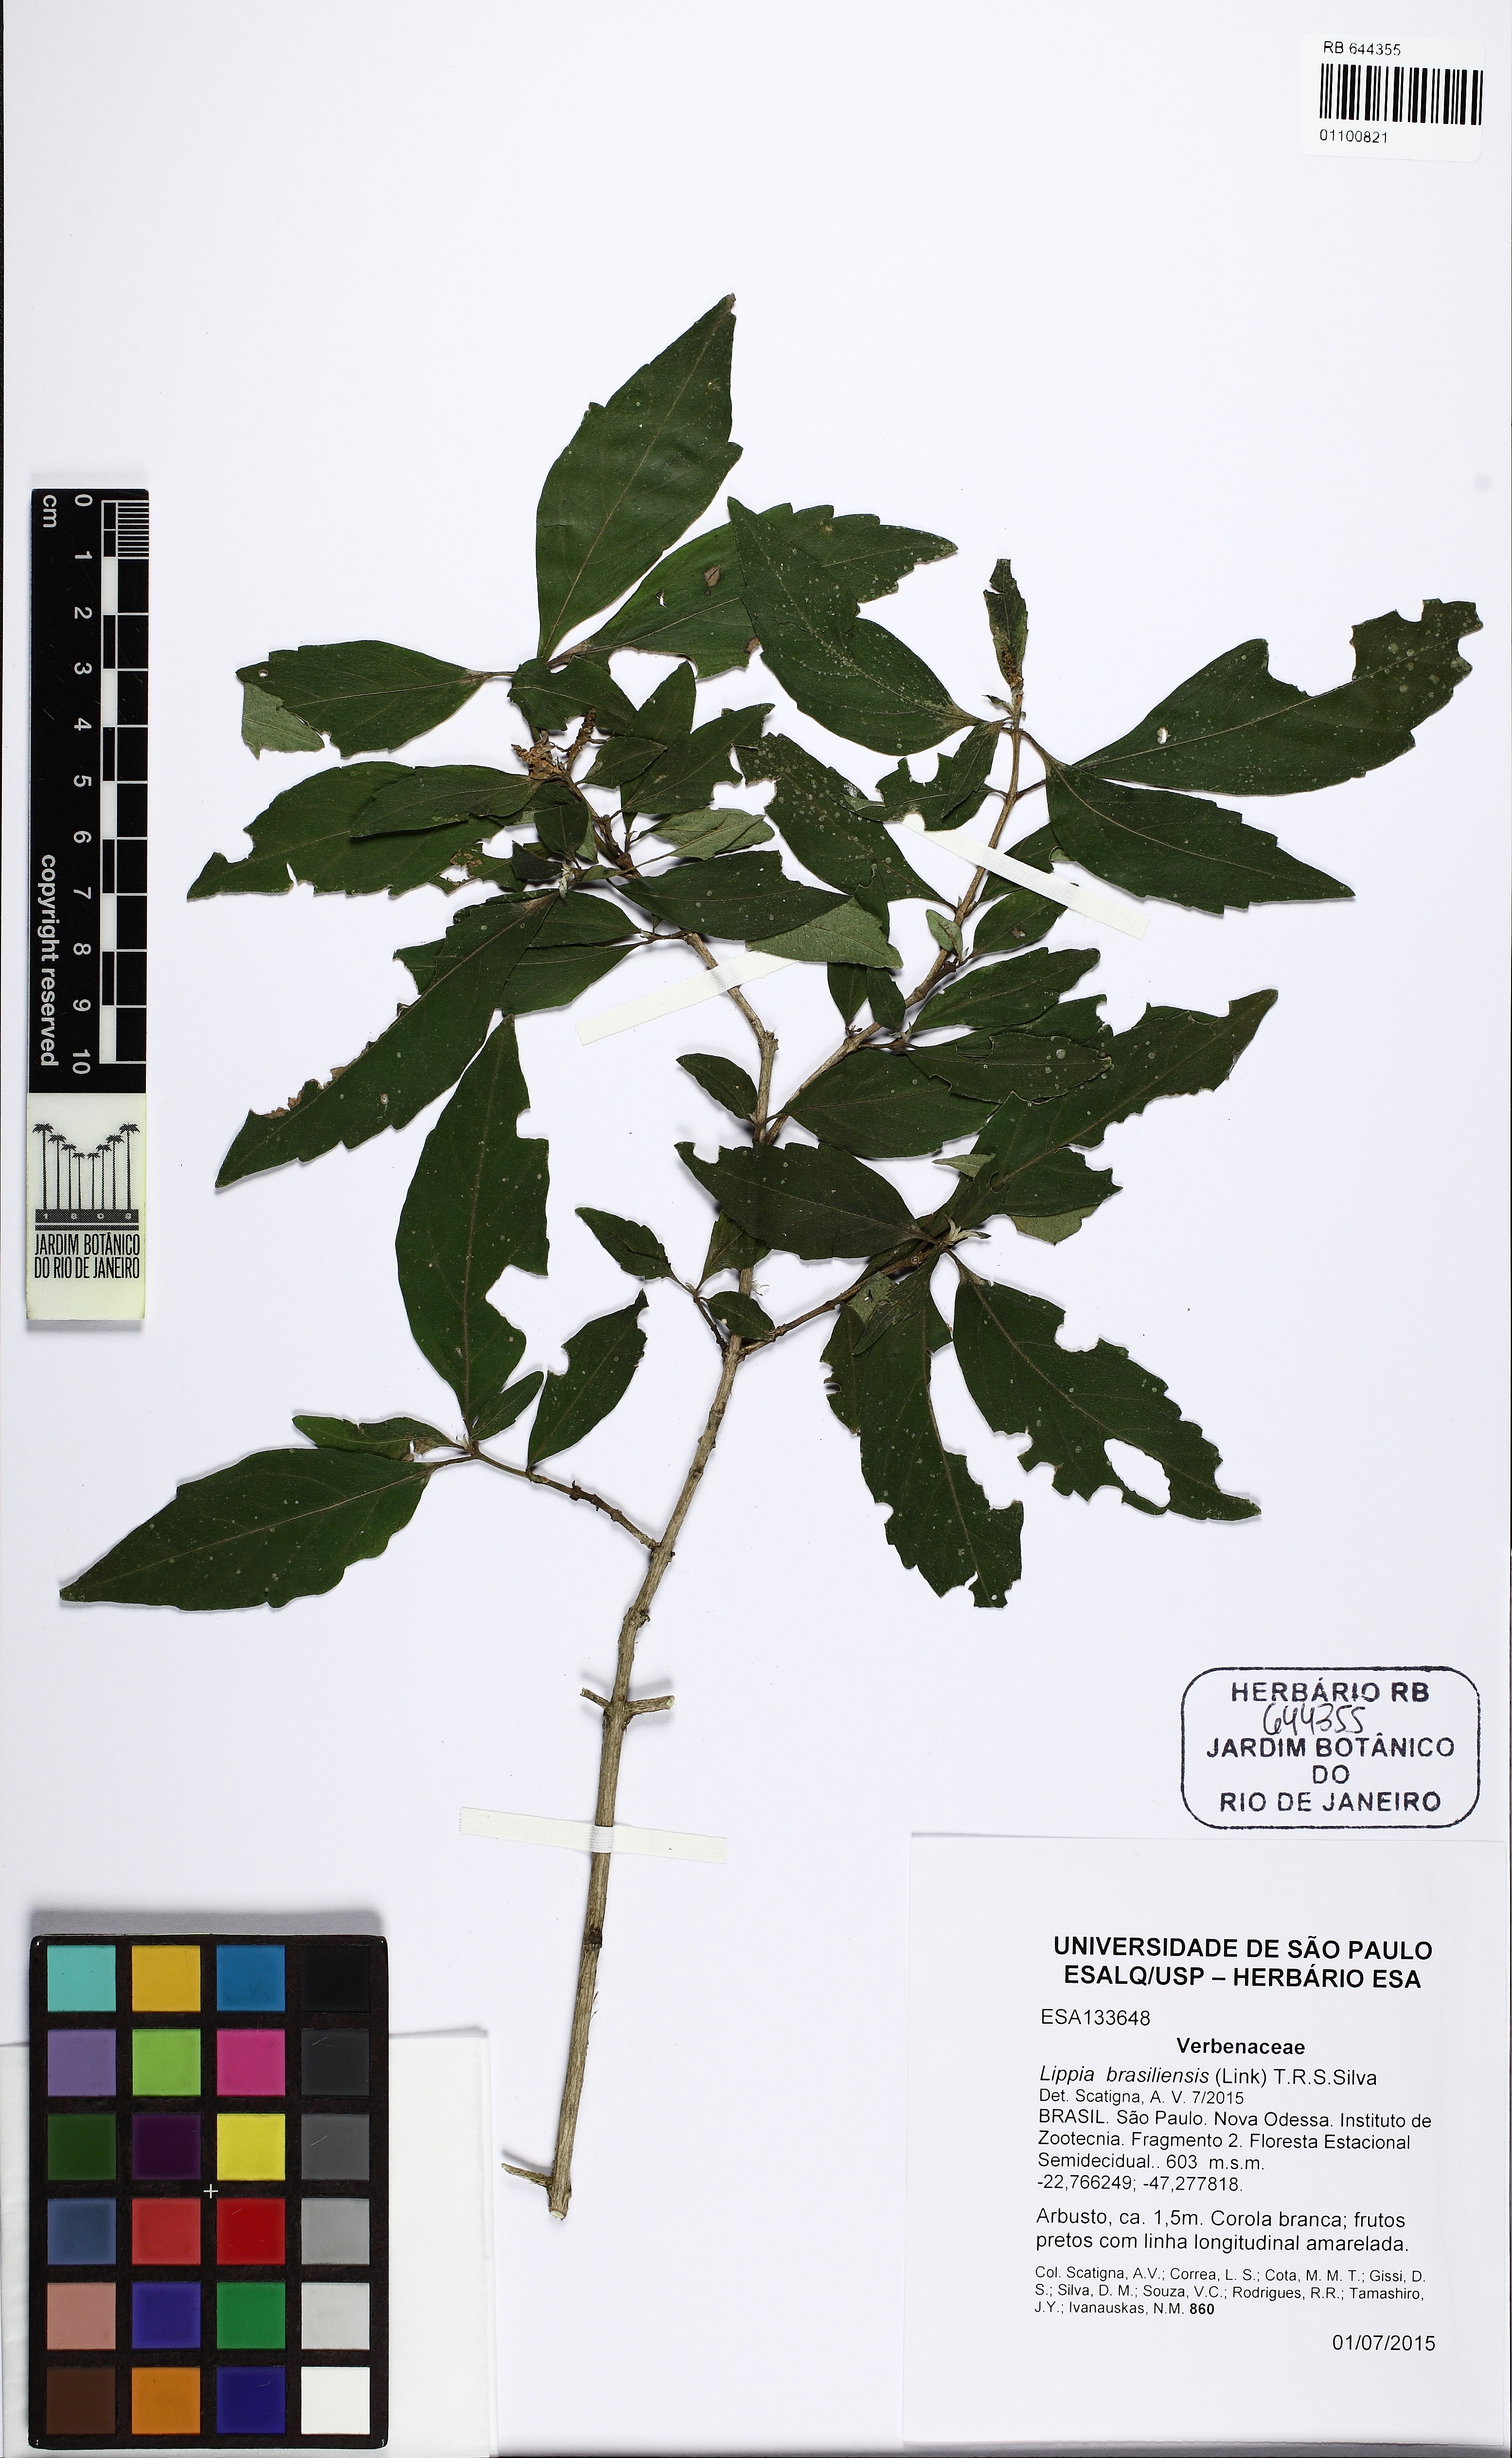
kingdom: Plantae
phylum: Tracheophyta
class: Magnoliopsida
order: Lamiales
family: Verbenaceae
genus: Lippia
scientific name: Lippia brasiliensis
